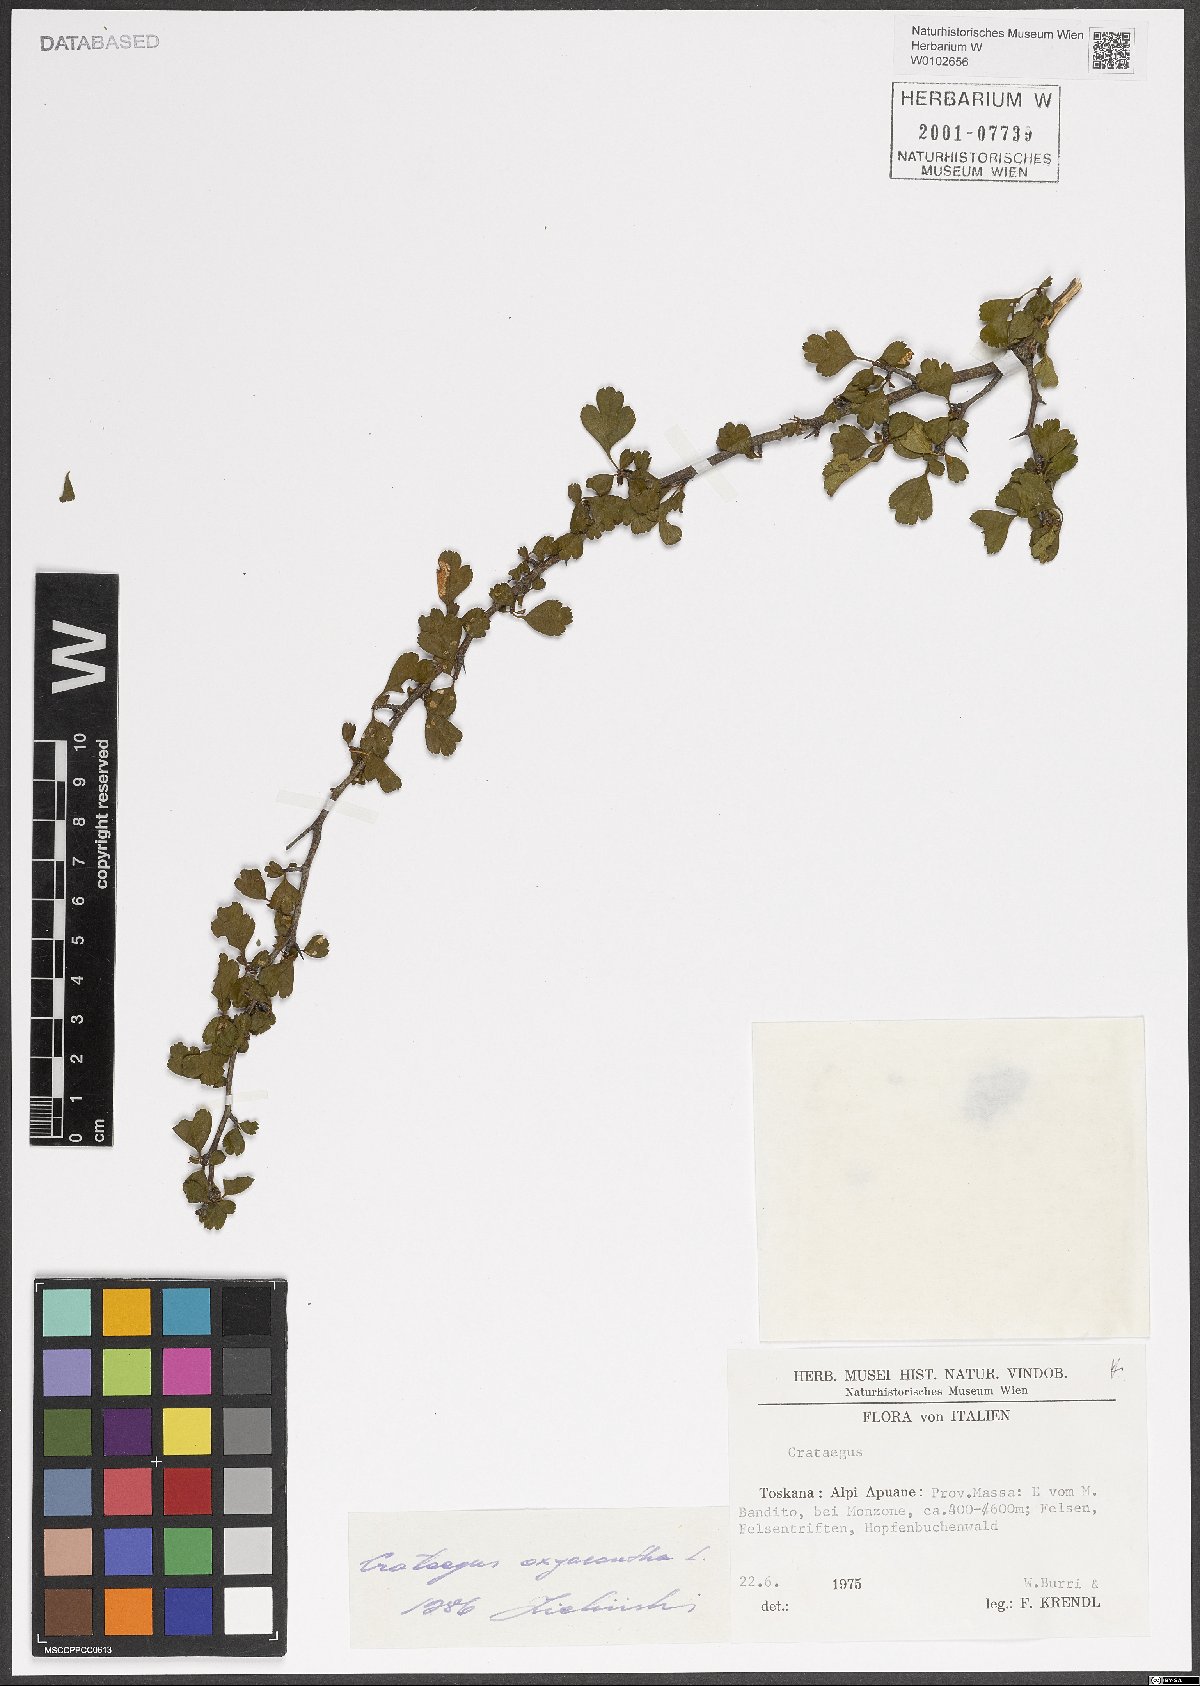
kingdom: Plantae
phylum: Tracheophyta
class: Magnoliopsida
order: Rosales
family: Rosaceae
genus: Crataegus
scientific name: Crataegus laevigata
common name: Midland hawthorn
